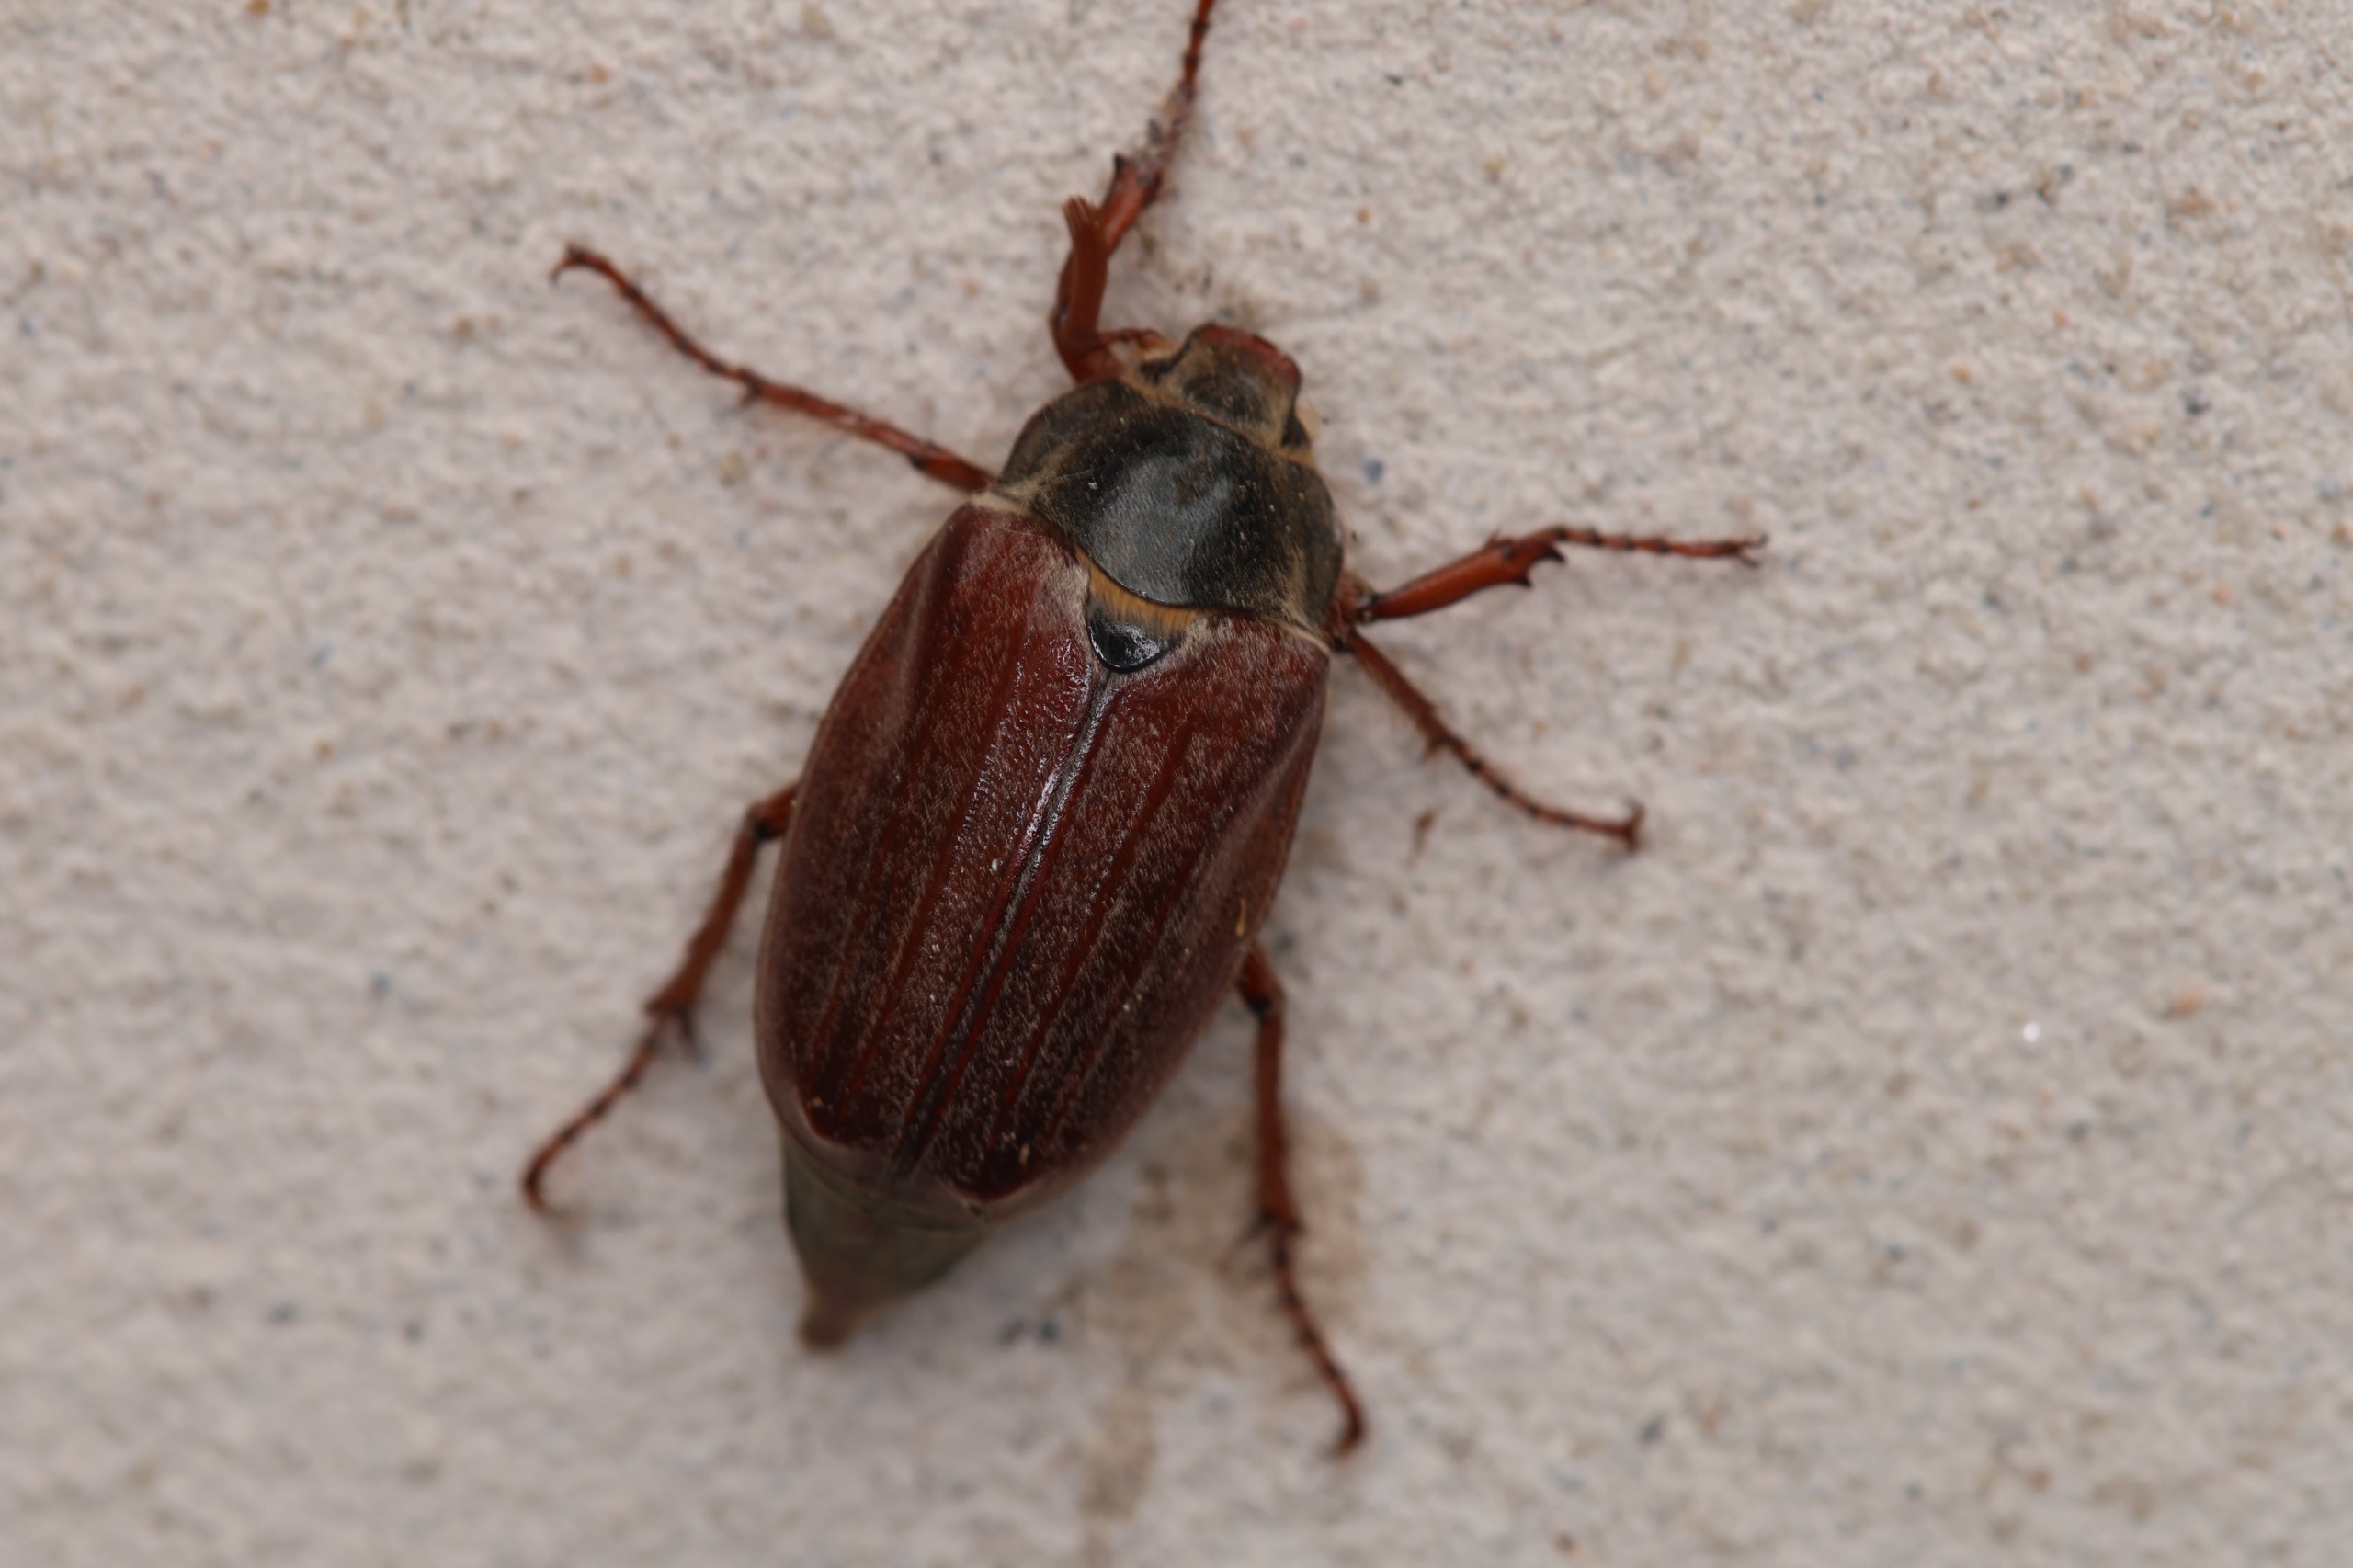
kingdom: Animalia
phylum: Arthropoda
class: Insecta
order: Coleoptera
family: Scarabaeidae
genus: Melolontha
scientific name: Melolontha melolontha
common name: Almindelig oldenborre
